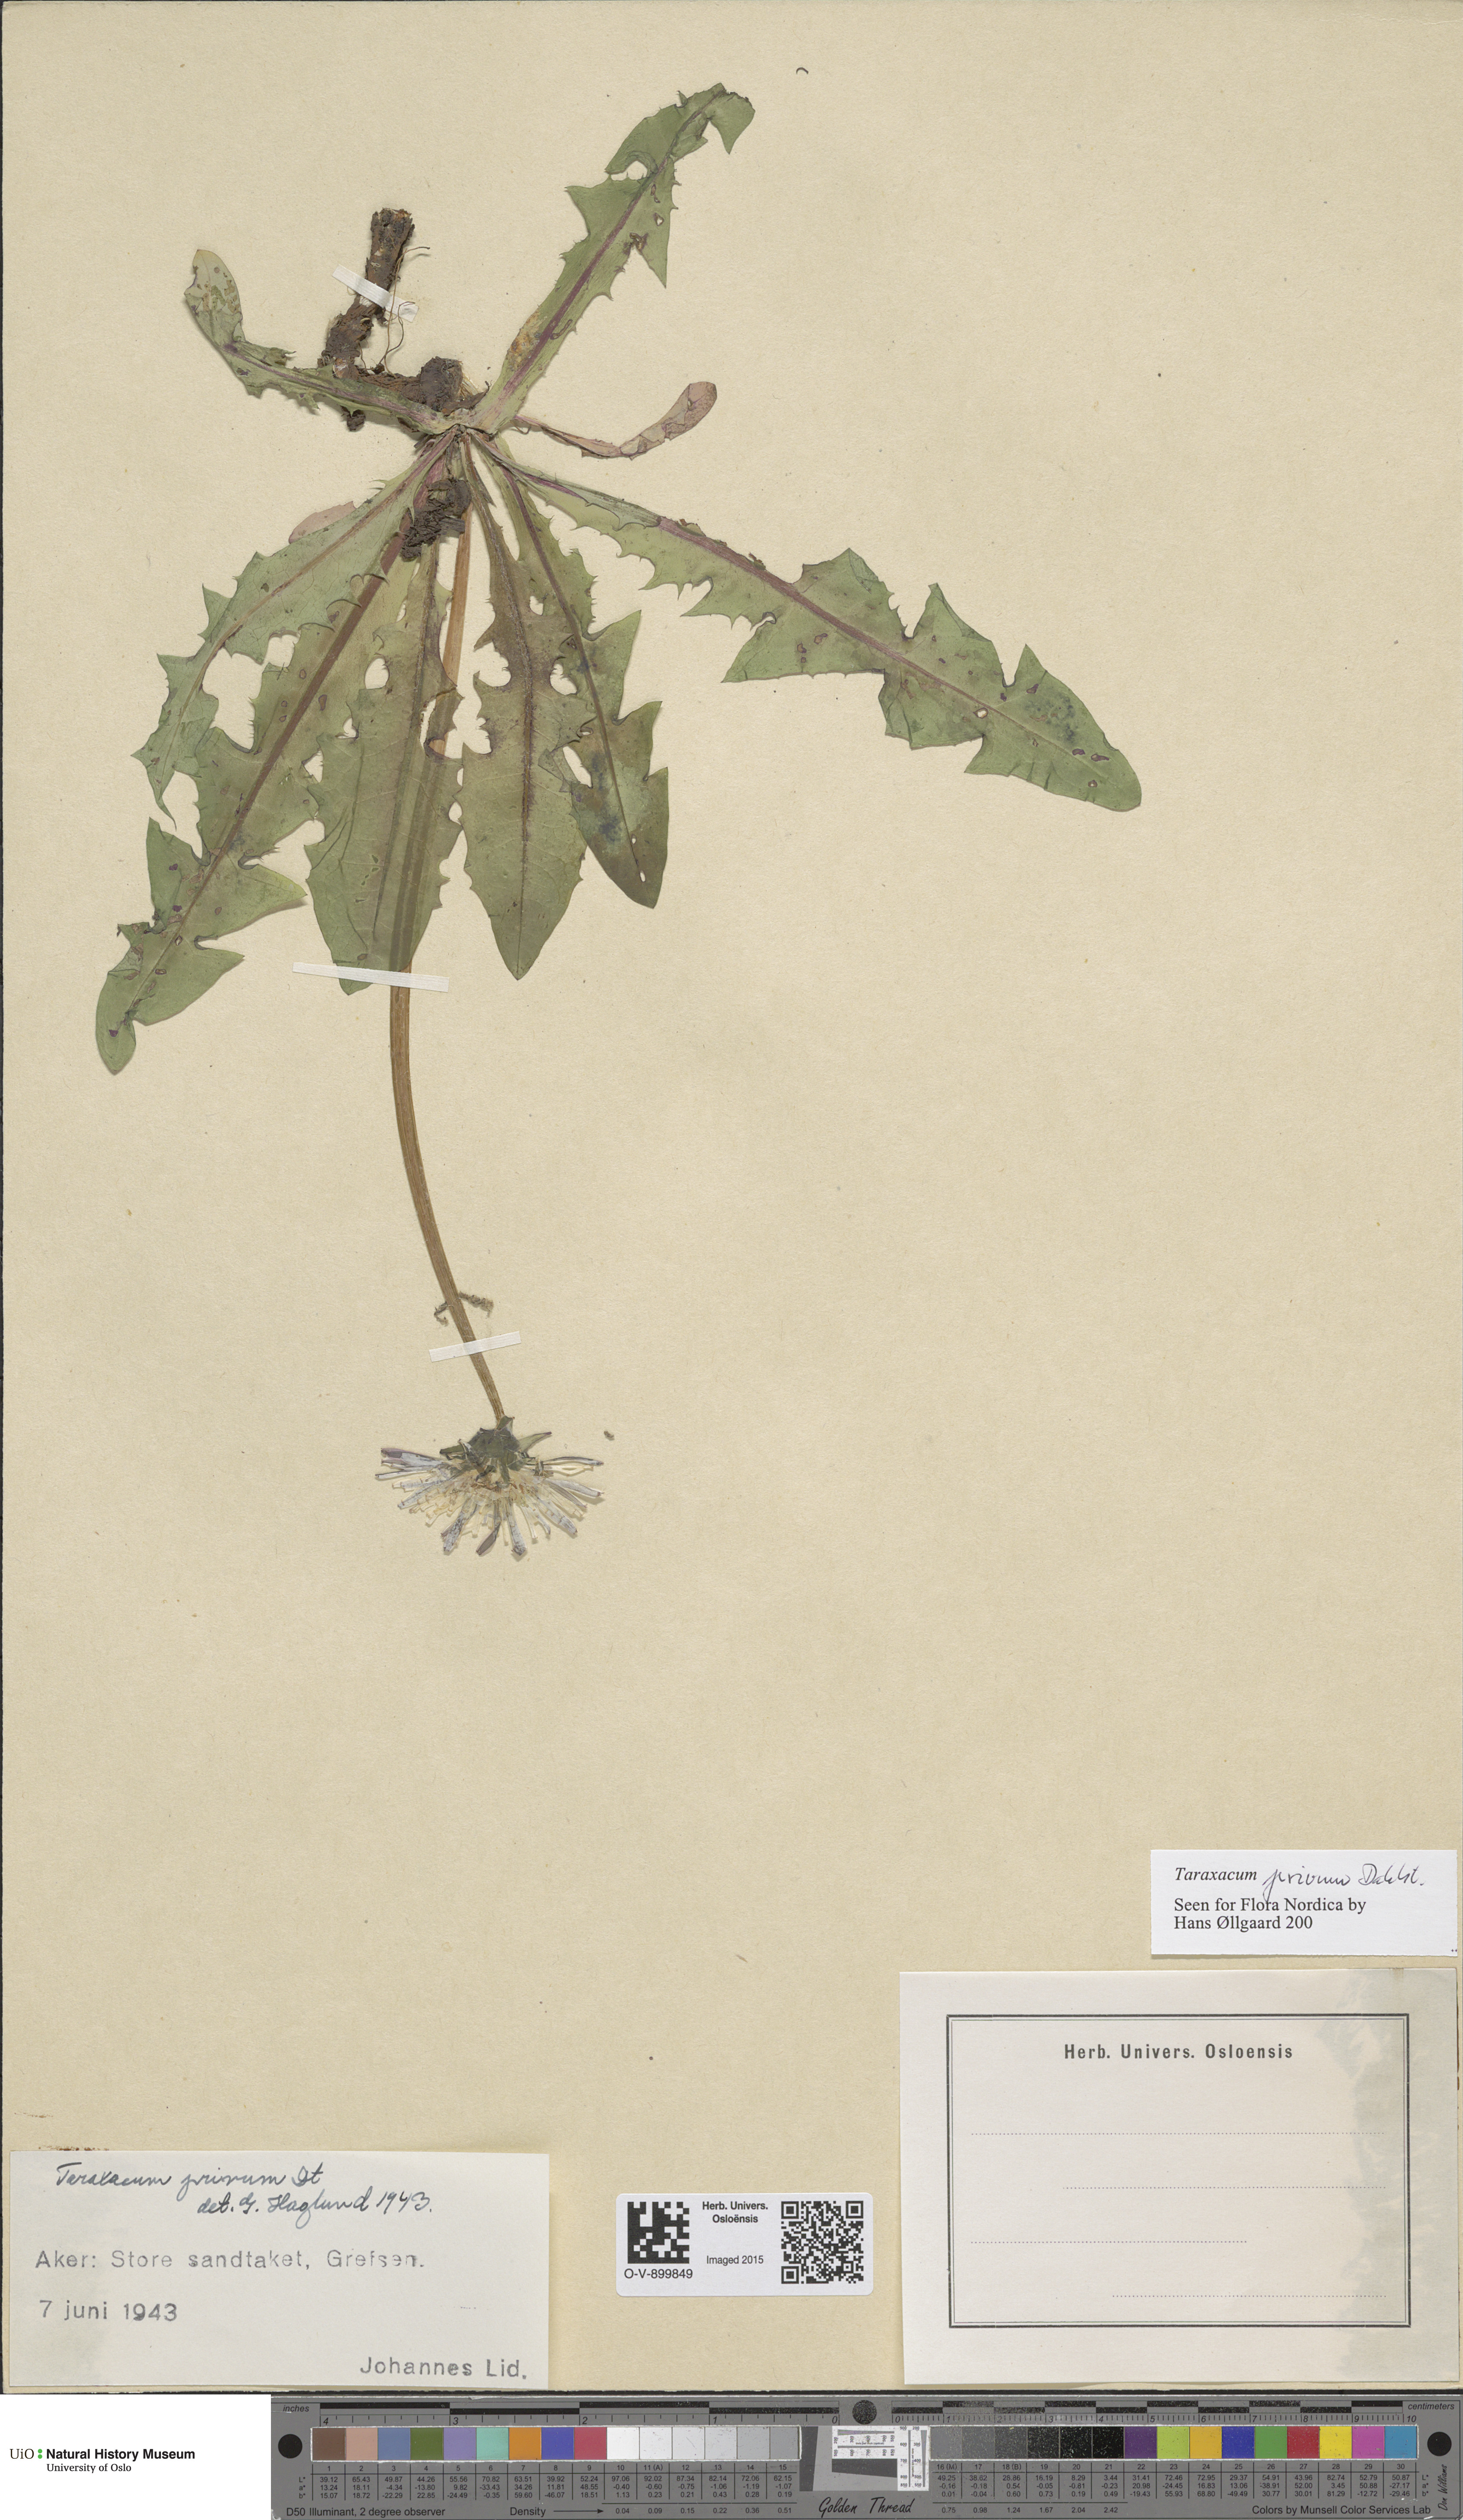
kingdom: Plantae
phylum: Tracheophyta
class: Magnoliopsida
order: Asterales
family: Asteraceae
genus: Taraxacum
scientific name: Taraxacum privum
